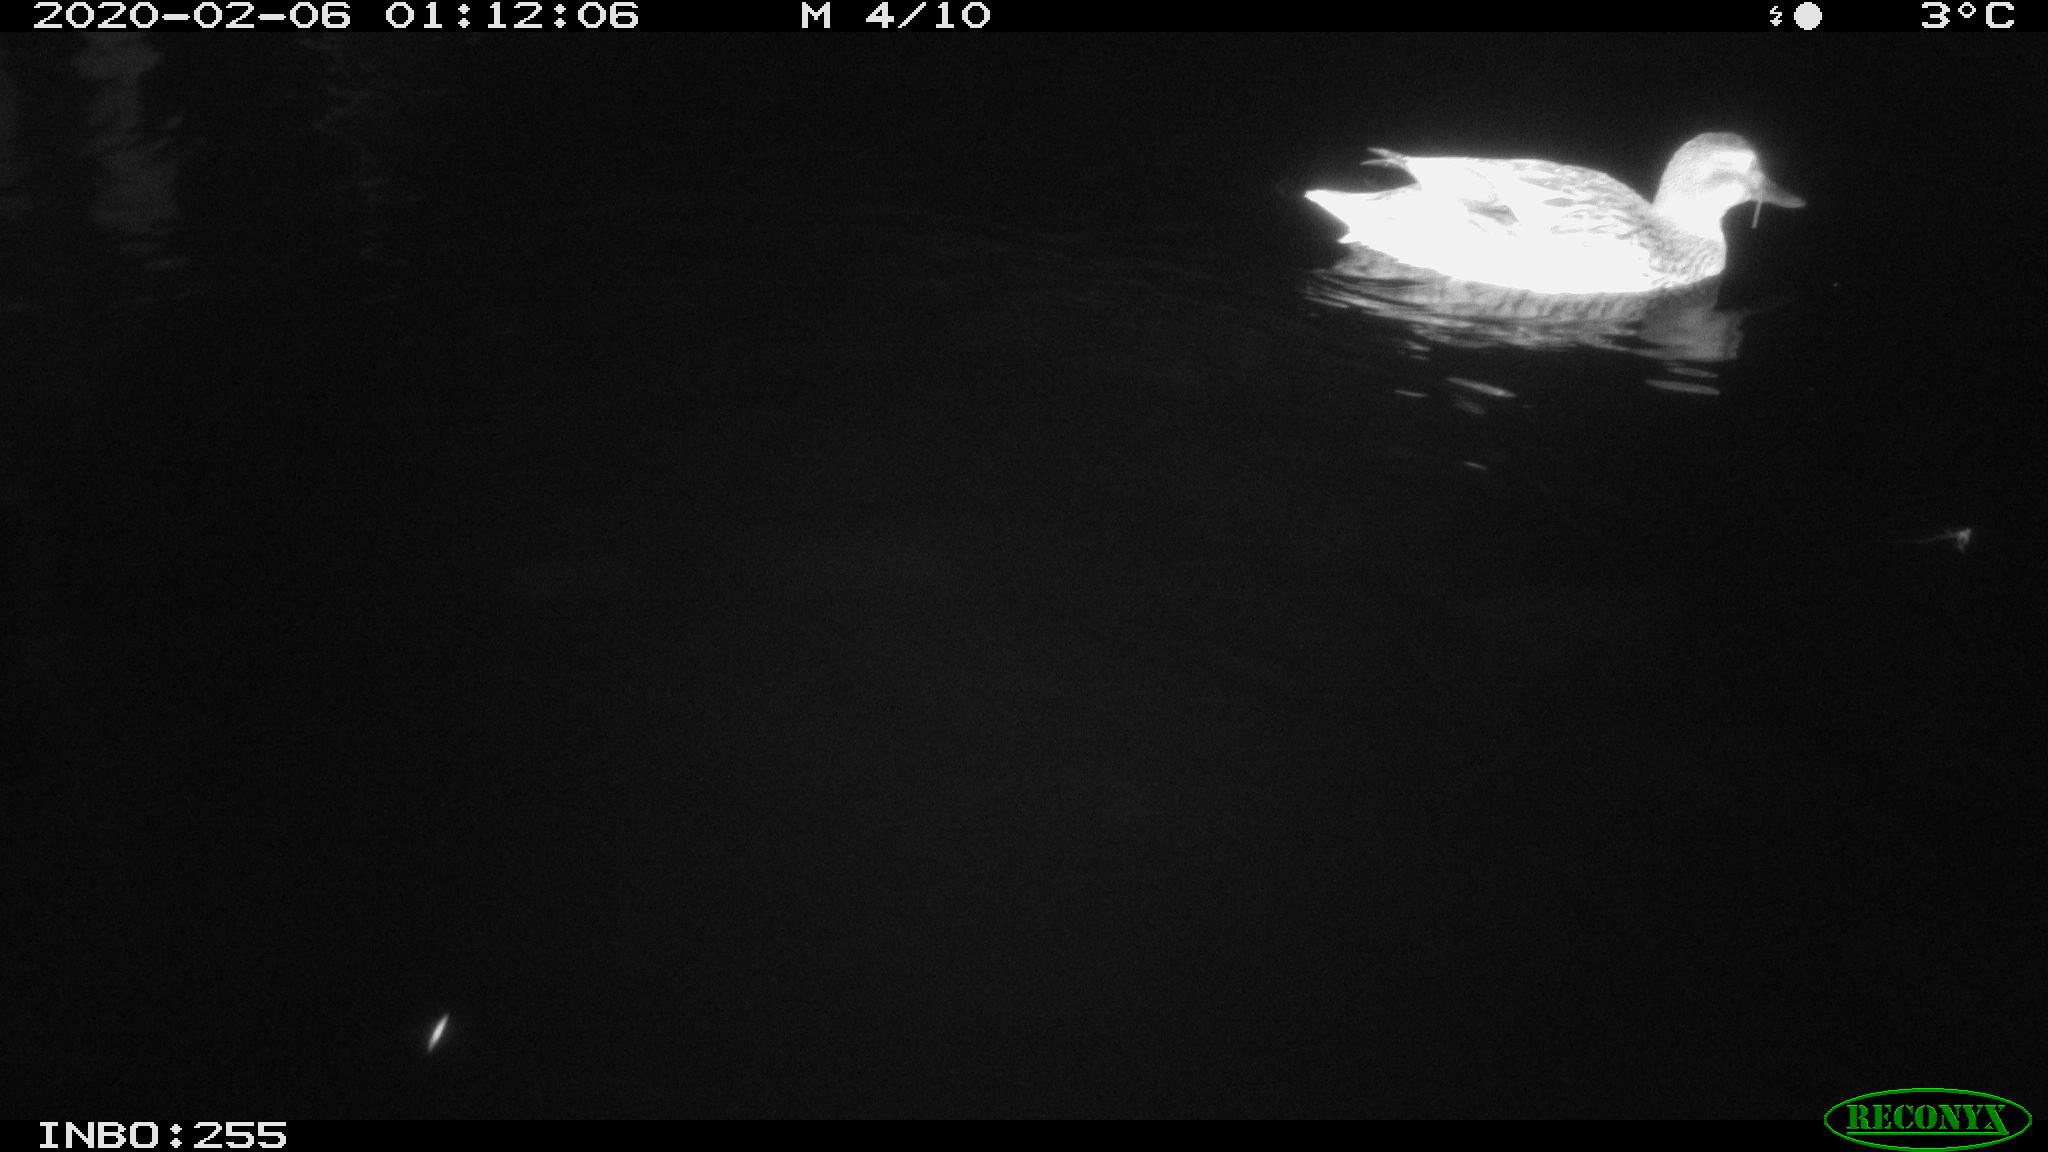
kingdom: Animalia
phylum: Chordata
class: Aves
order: Anseriformes
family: Anatidae
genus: Anas
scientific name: Anas platyrhynchos
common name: Mallard
